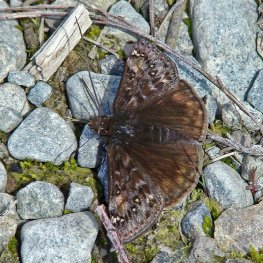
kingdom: Animalia
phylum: Arthropoda
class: Insecta
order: Lepidoptera
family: Hesperiidae
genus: Gesta
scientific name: Gesta
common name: Juvenal's Duskywing
